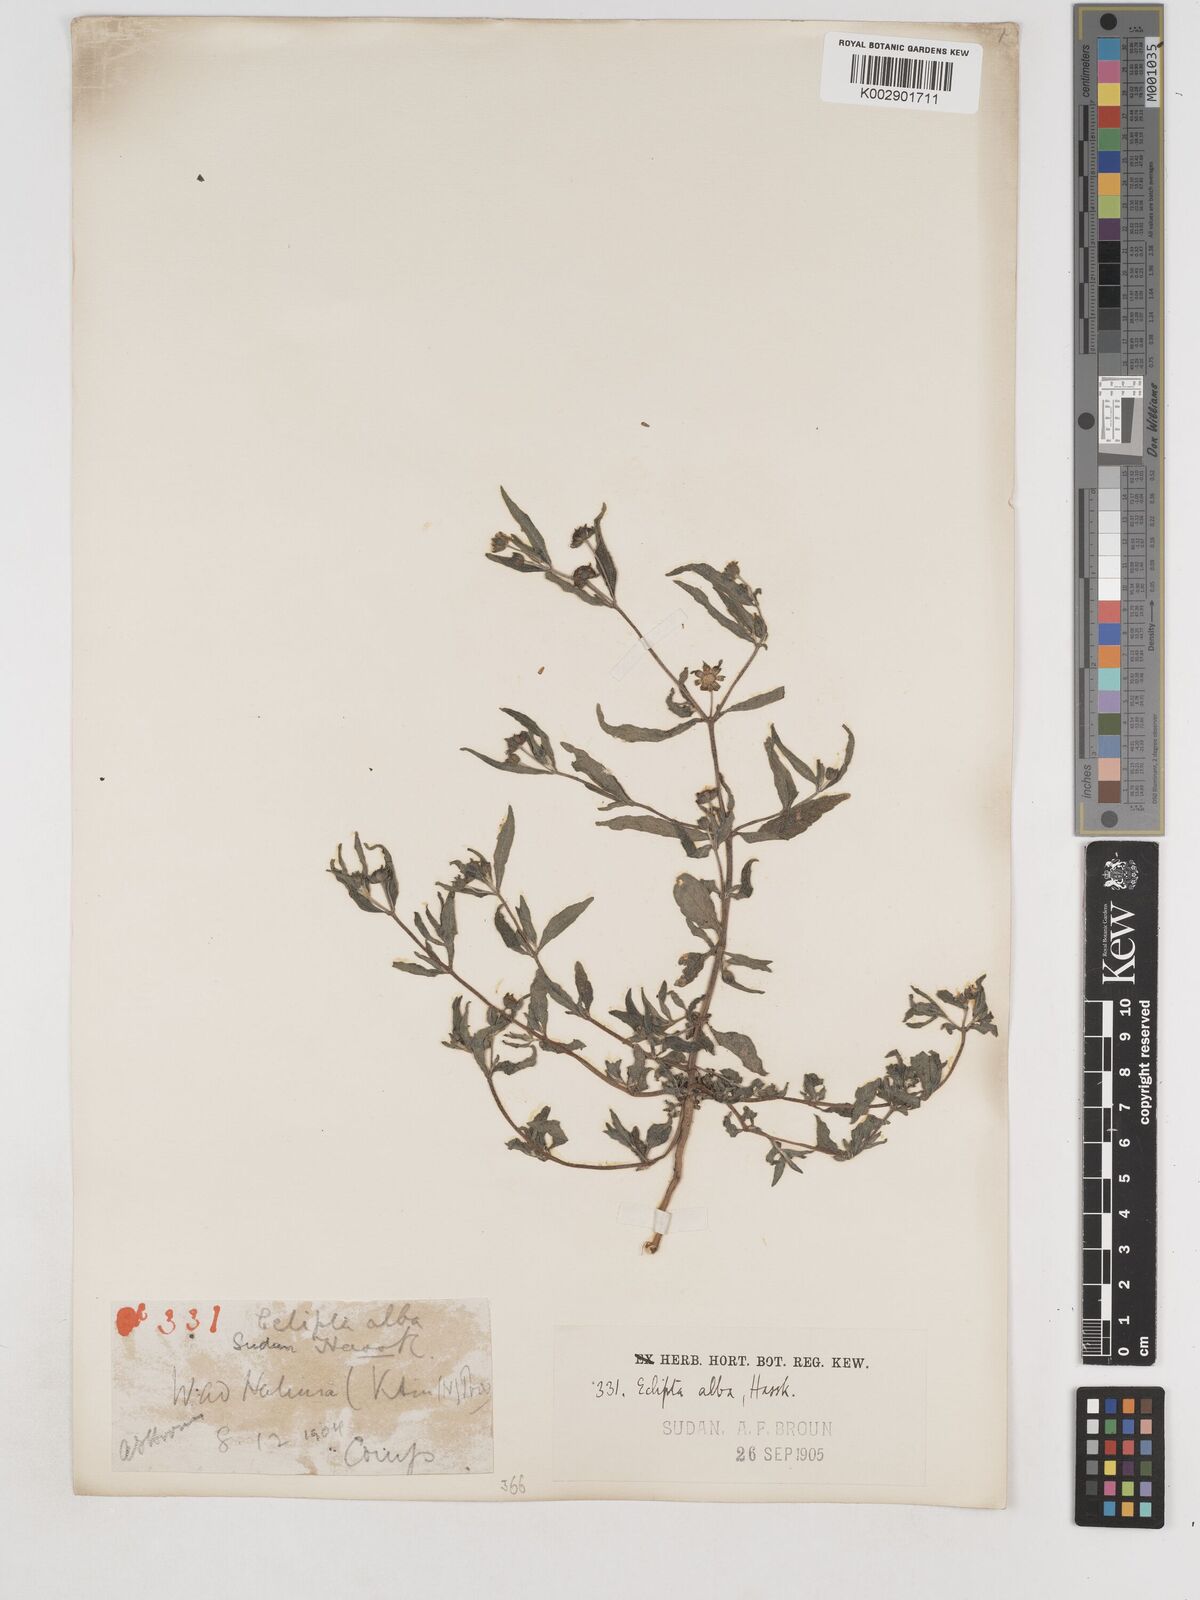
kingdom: Plantae
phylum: Tracheophyta
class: Magnoliopsida
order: Asterales
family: Asteraceae
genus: Eclipta
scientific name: Eclipta alba
